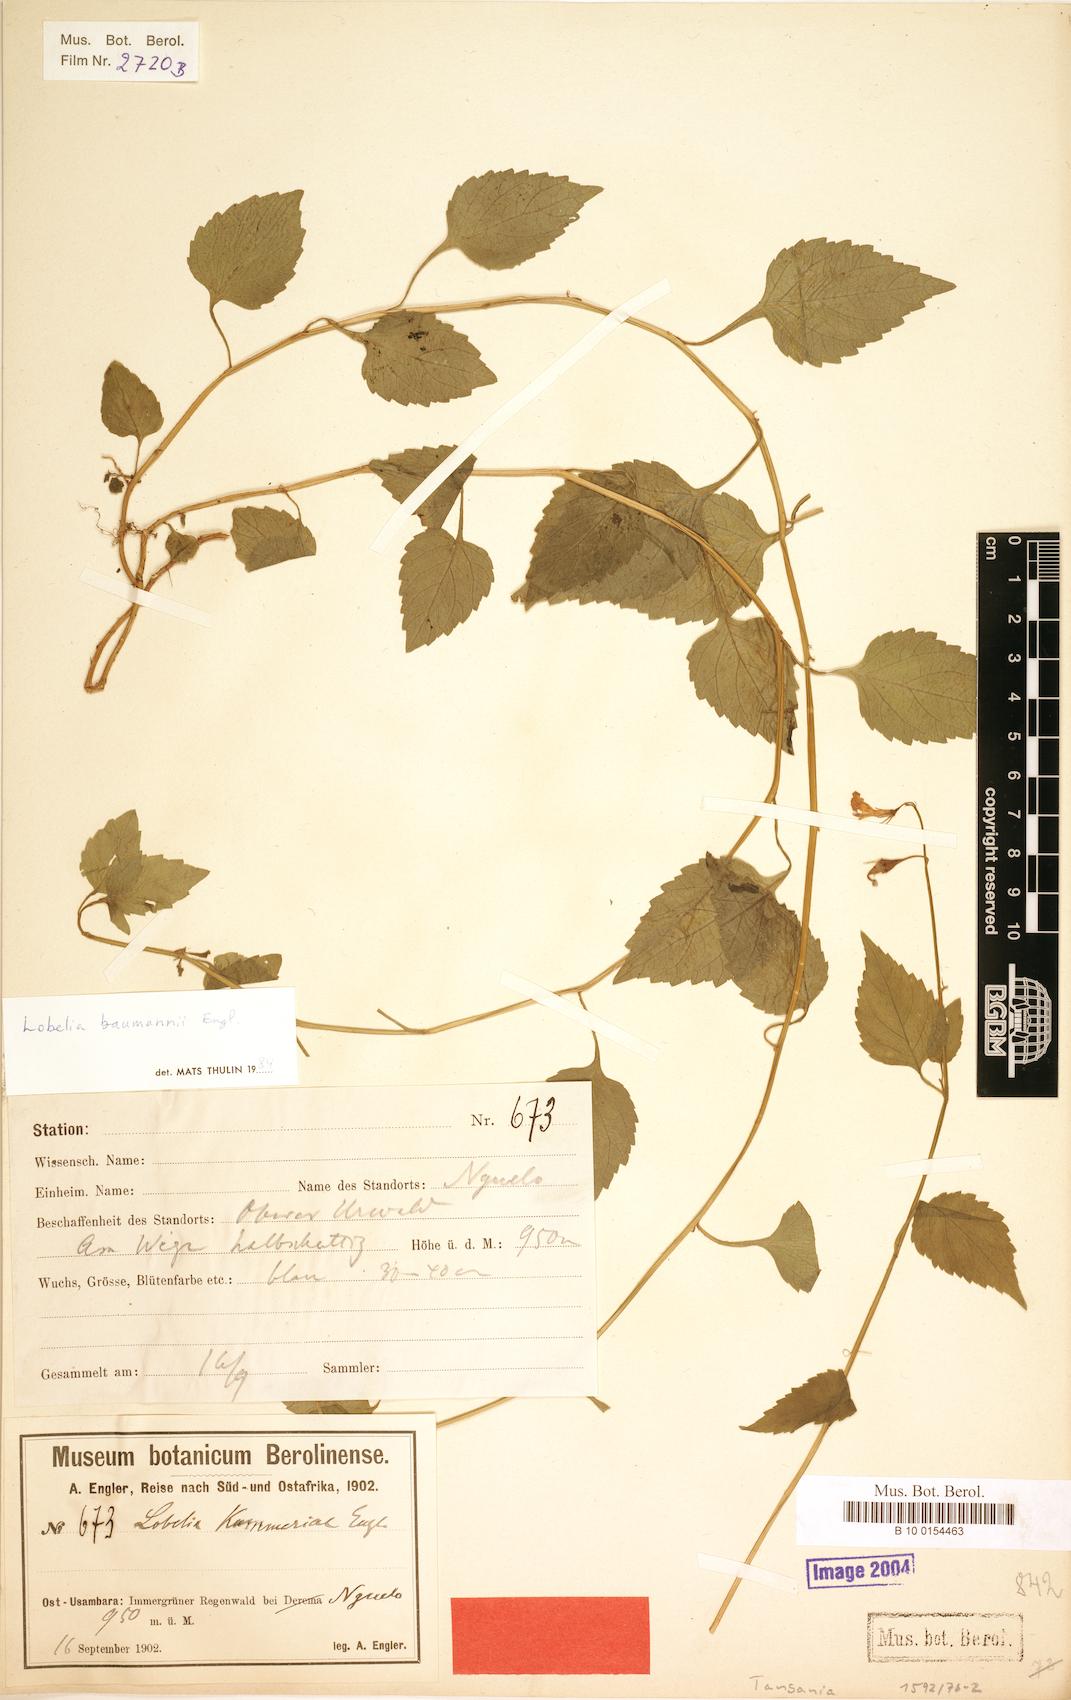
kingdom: Plantae
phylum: Tracheophyta
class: Magnoliopsida
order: Asterales
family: Campanulaceae
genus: Lobelia
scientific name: Lobelia baumannii
